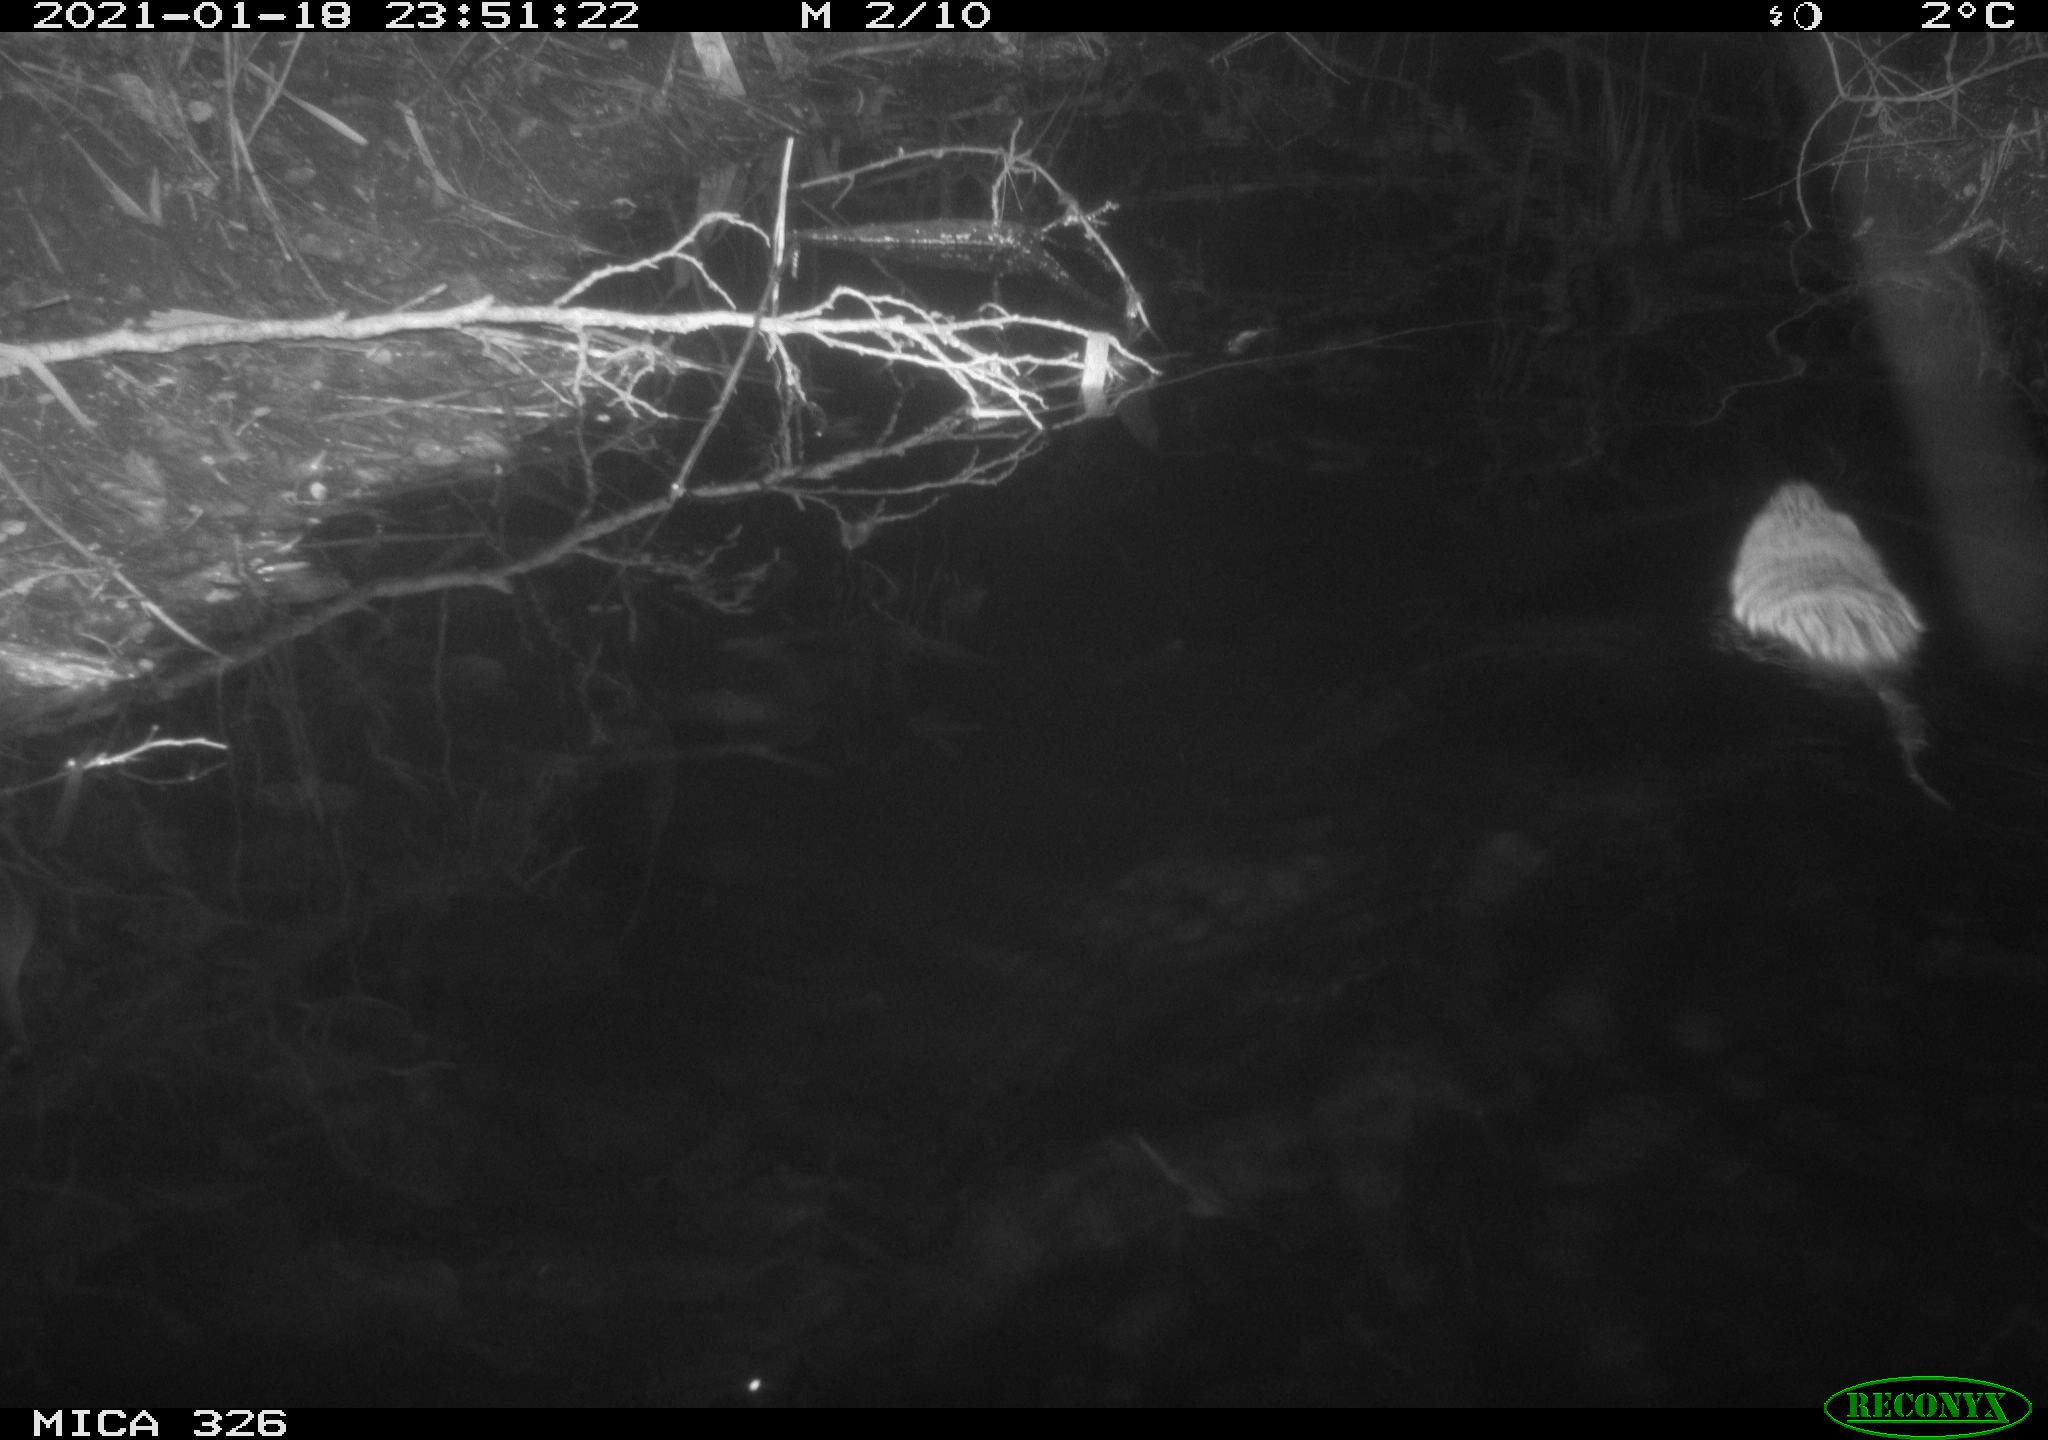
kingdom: Animalia
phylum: Chordata
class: Mammalia
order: Rodentia
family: Cricetidae
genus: Ondatra
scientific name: Ondatra zibethicus
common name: Muskrat
